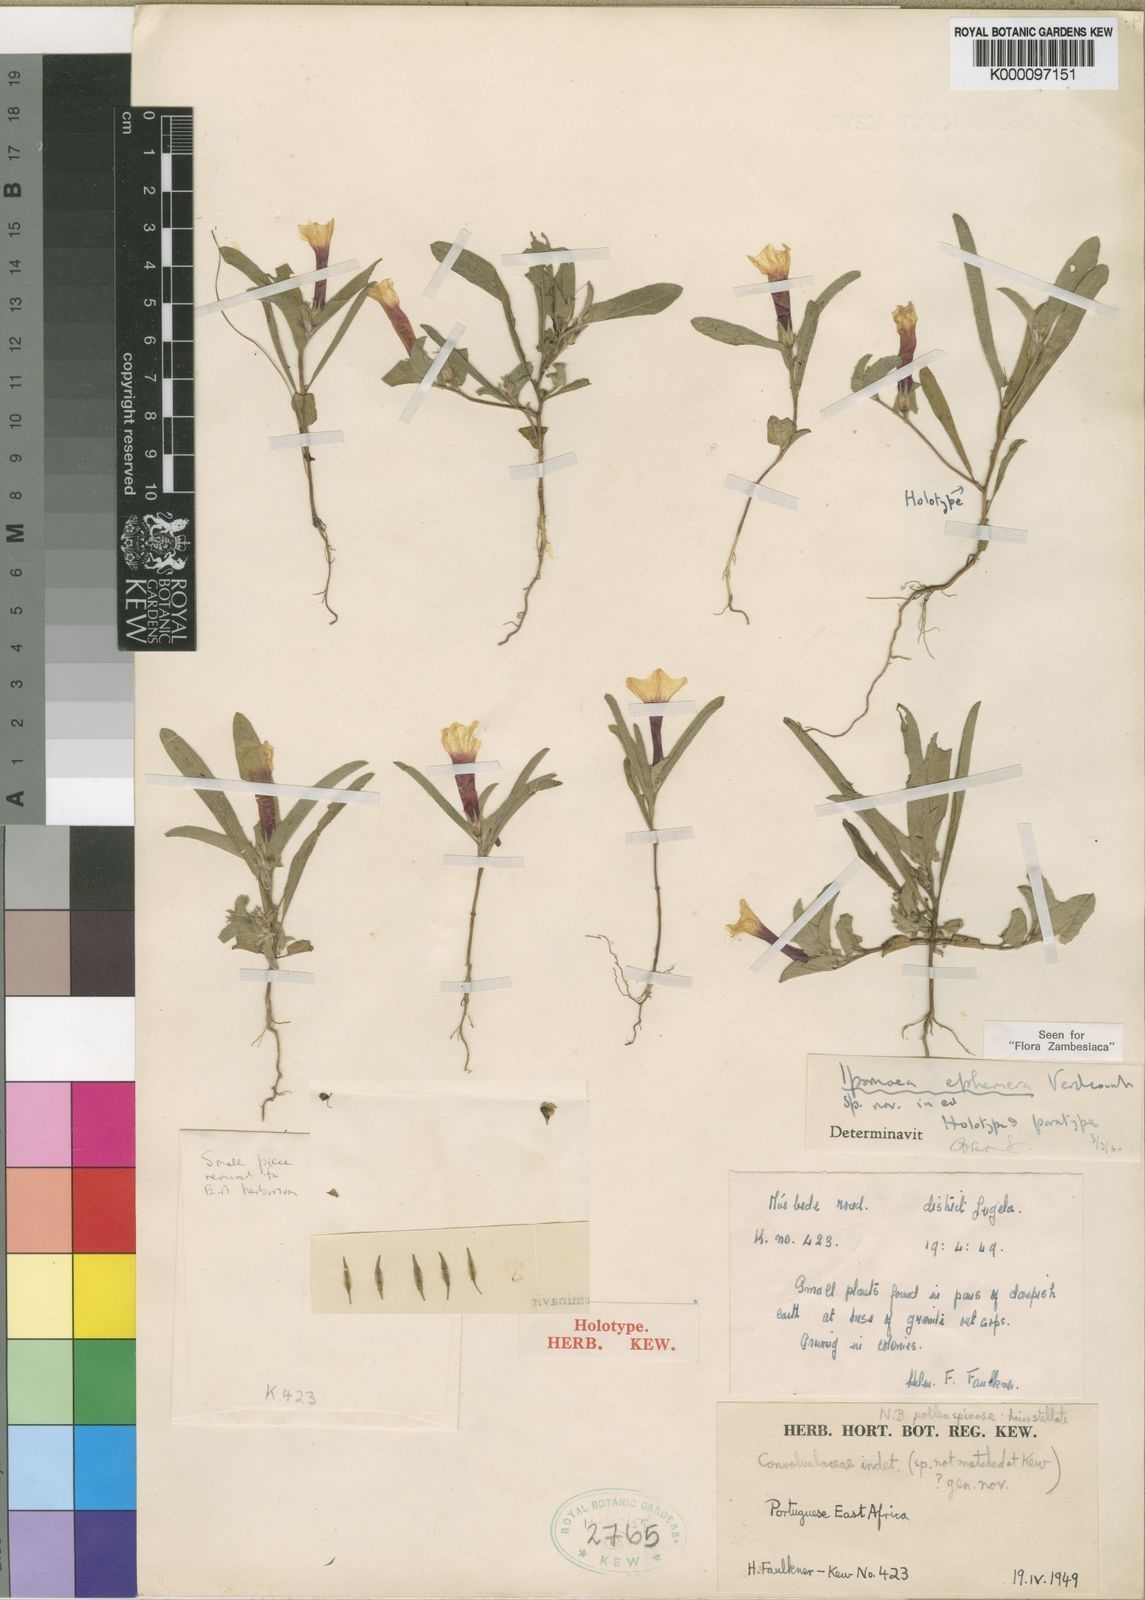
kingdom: Plantae
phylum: Tracheophyta
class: Magnoliopsida
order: Solanales
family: Convolvulaceae
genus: Ipomoea
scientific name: Ipomoea ephemera
